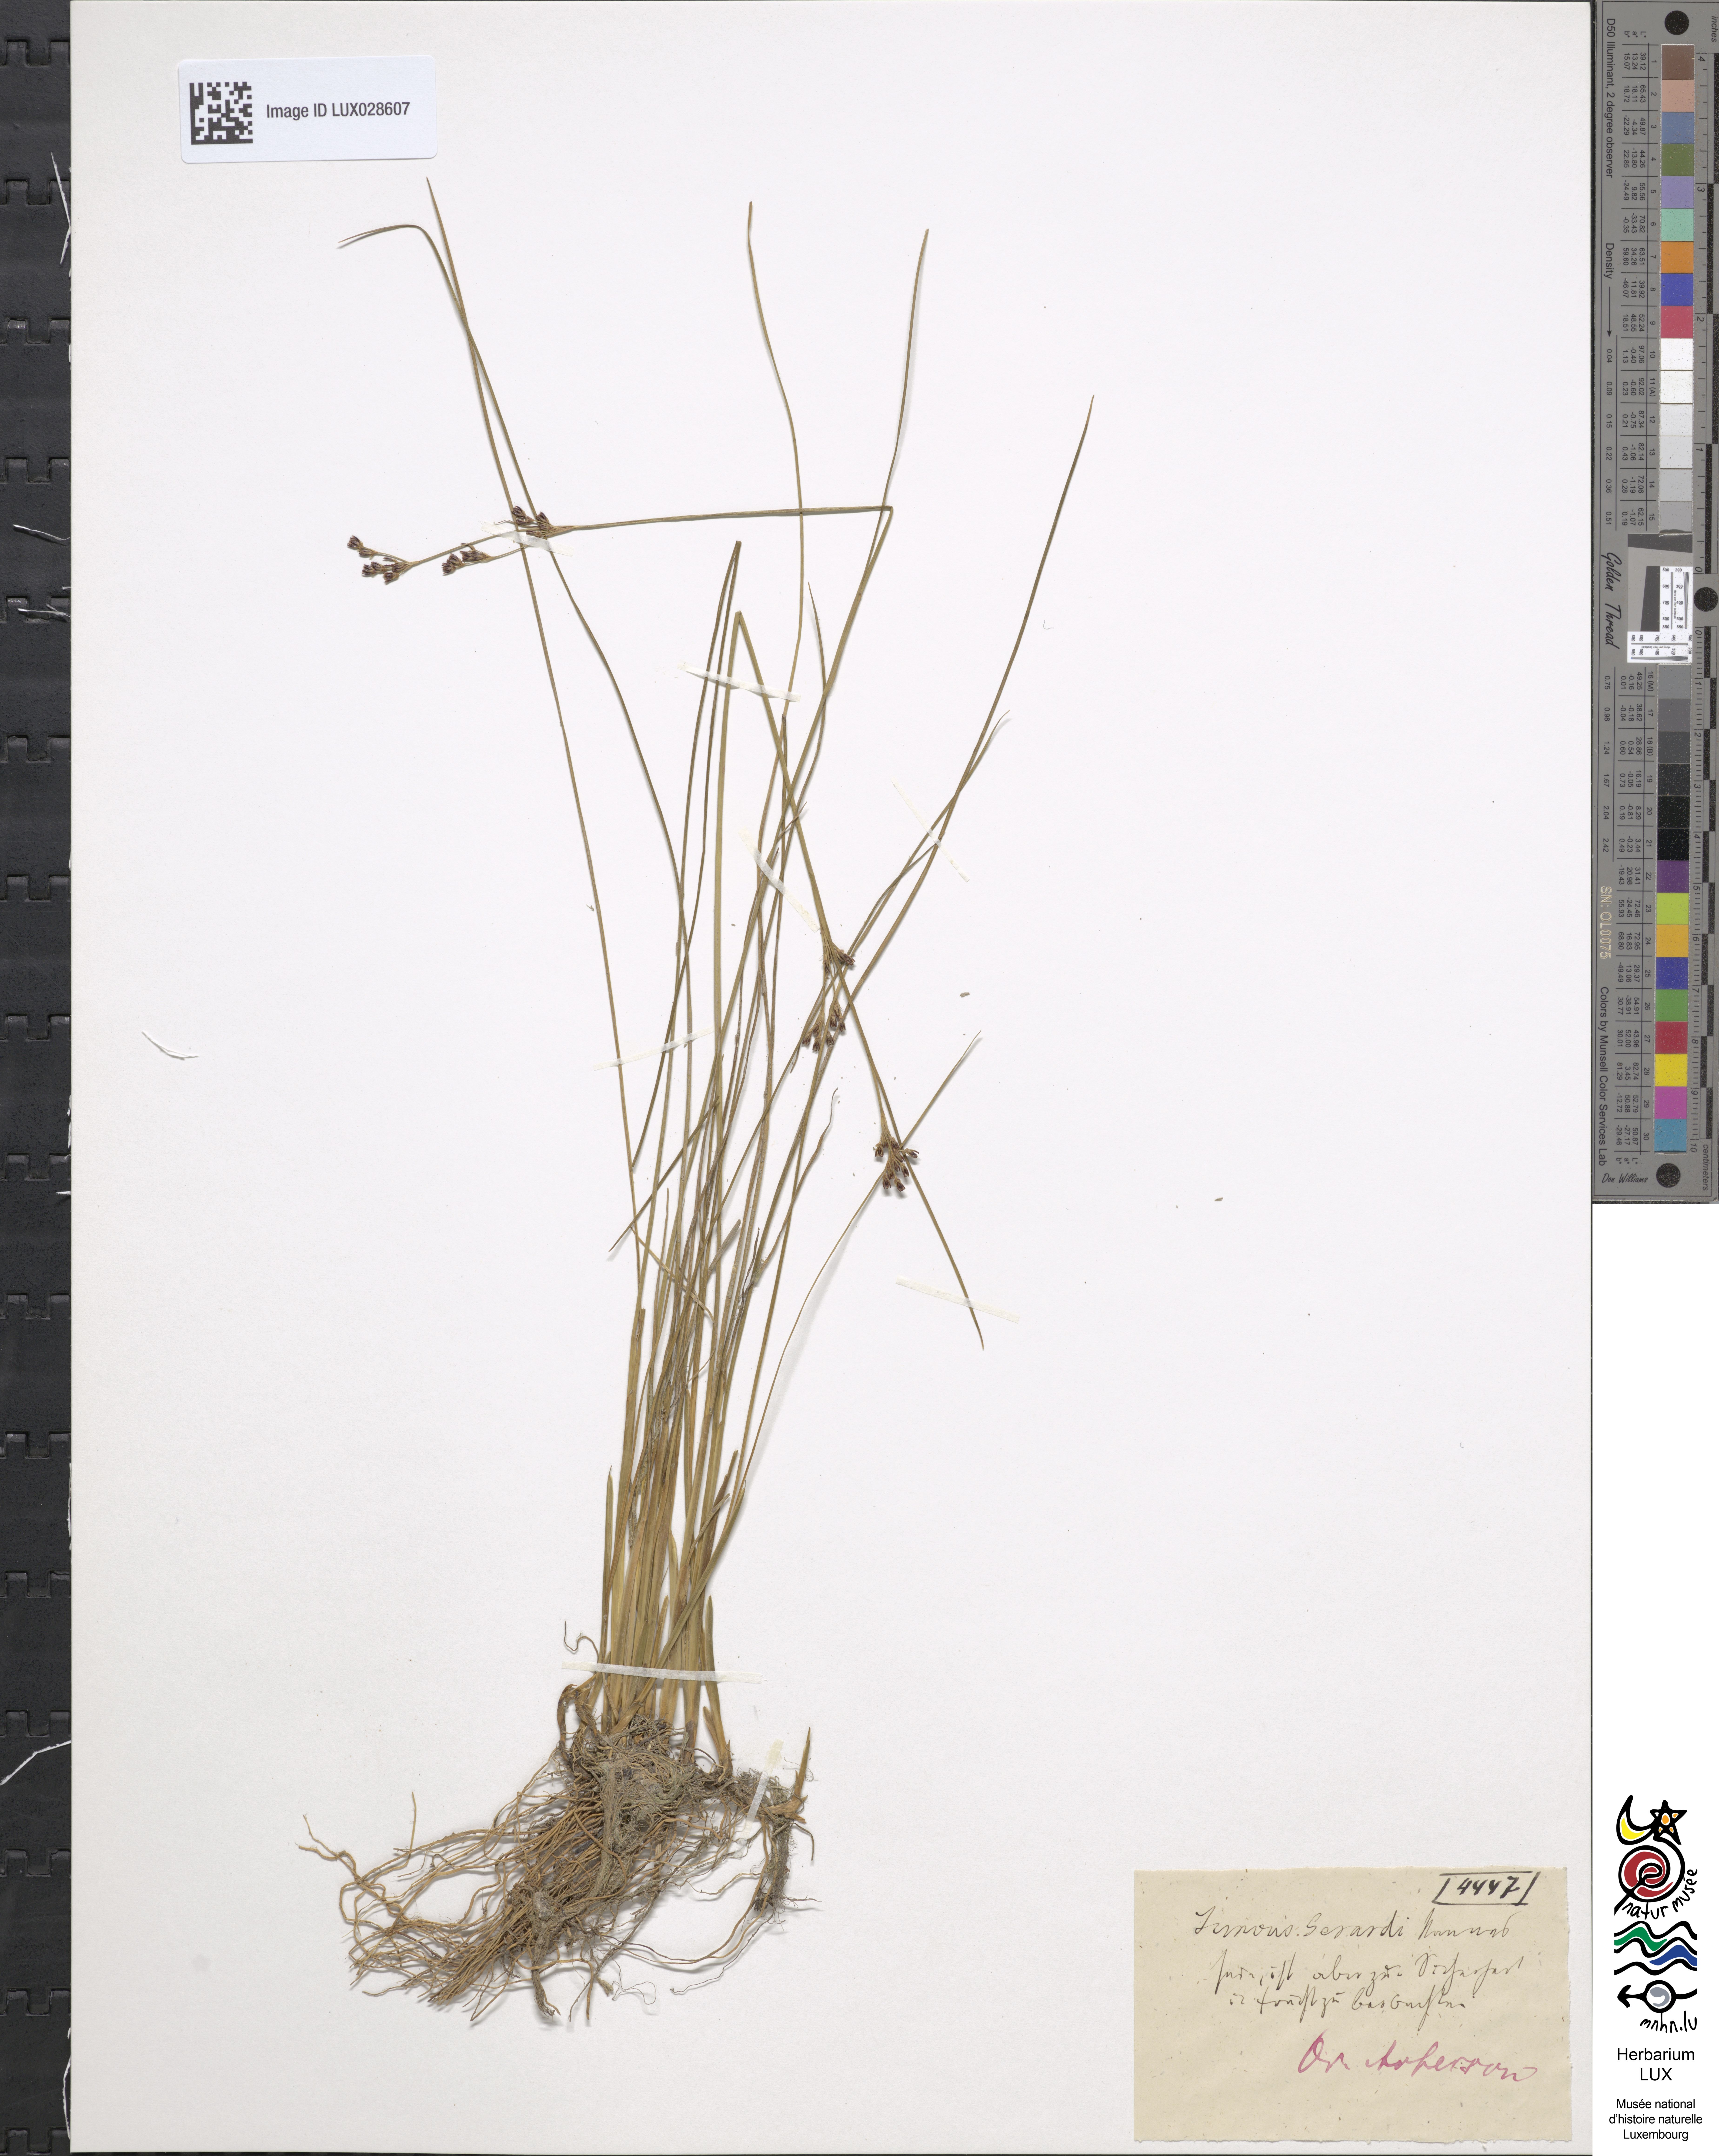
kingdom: Plantae
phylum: Tracheophyta
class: Liliopsida
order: Poales
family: Juncaceae
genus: Juncus
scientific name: Juncus gerardi
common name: Saltmarsh rush
